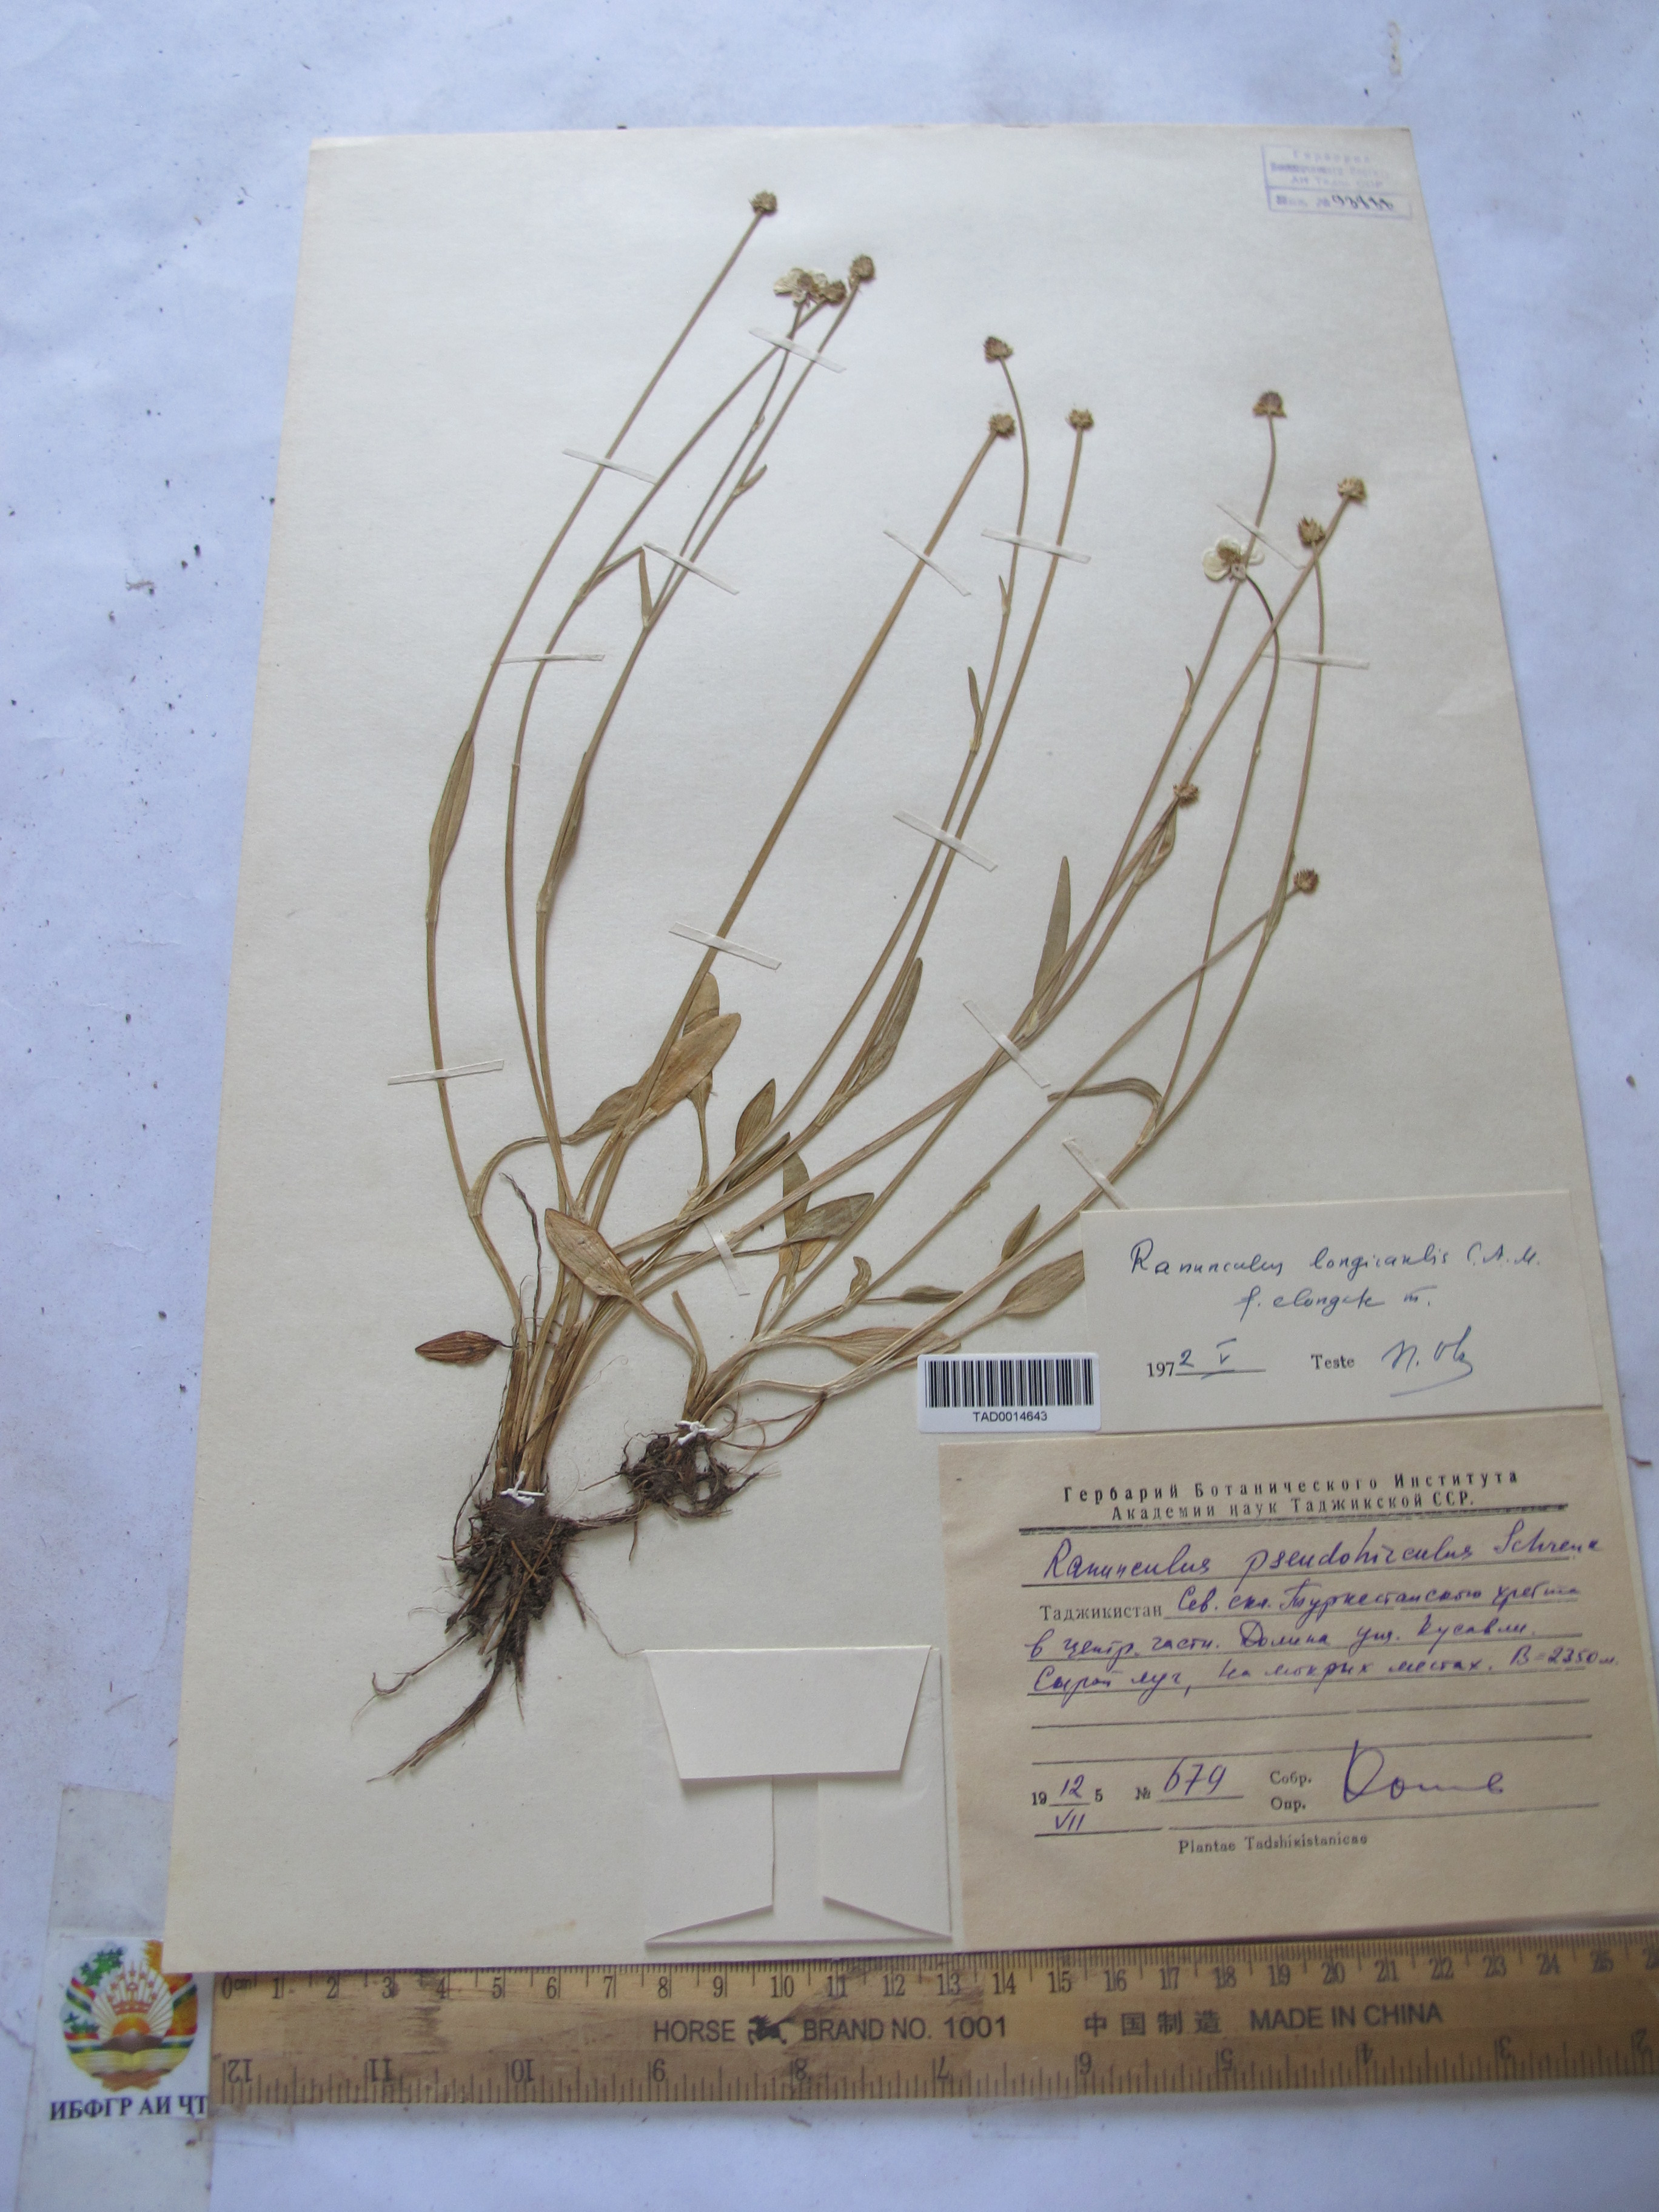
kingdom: Plantae
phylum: Tracheophyta
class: Magnoliopsida
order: Ranunculales
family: Ranunculaceae
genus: Ranunculus
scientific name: Ranunculus longicaulis
